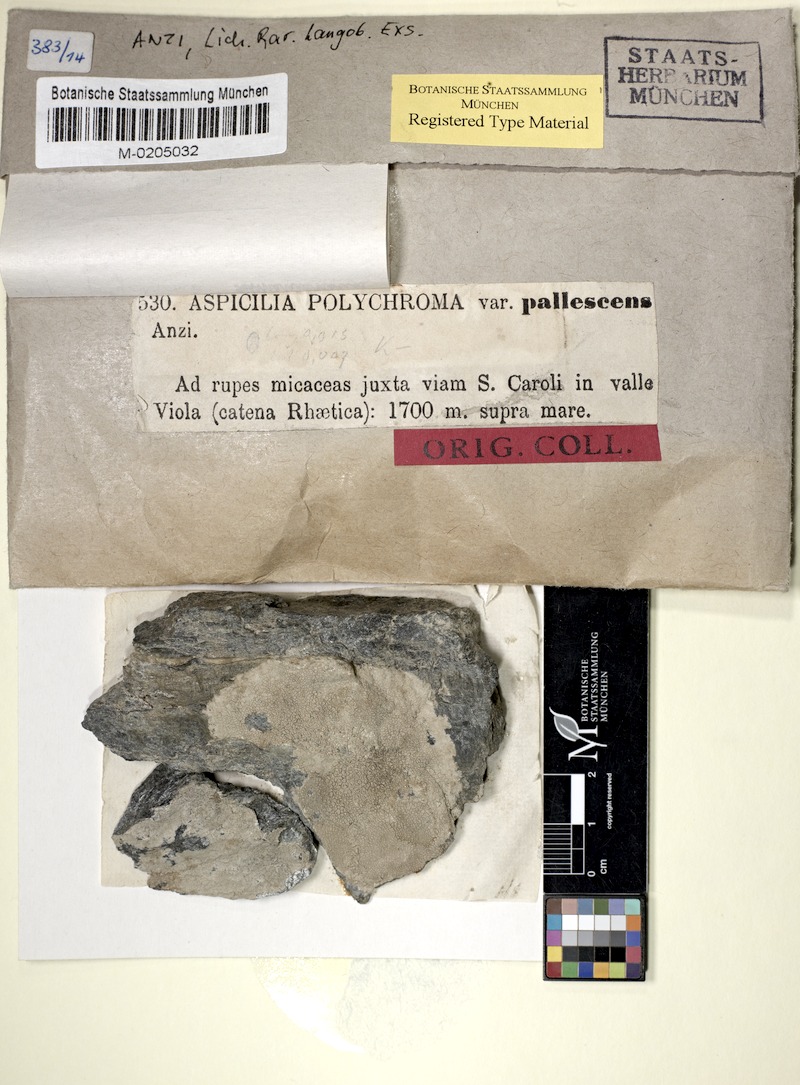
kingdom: Fungi
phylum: Ascomycota
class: Lecanoromycetes
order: Pertusariales
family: Megasporaceae
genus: Aspicilia
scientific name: Aspicilia polychroma
